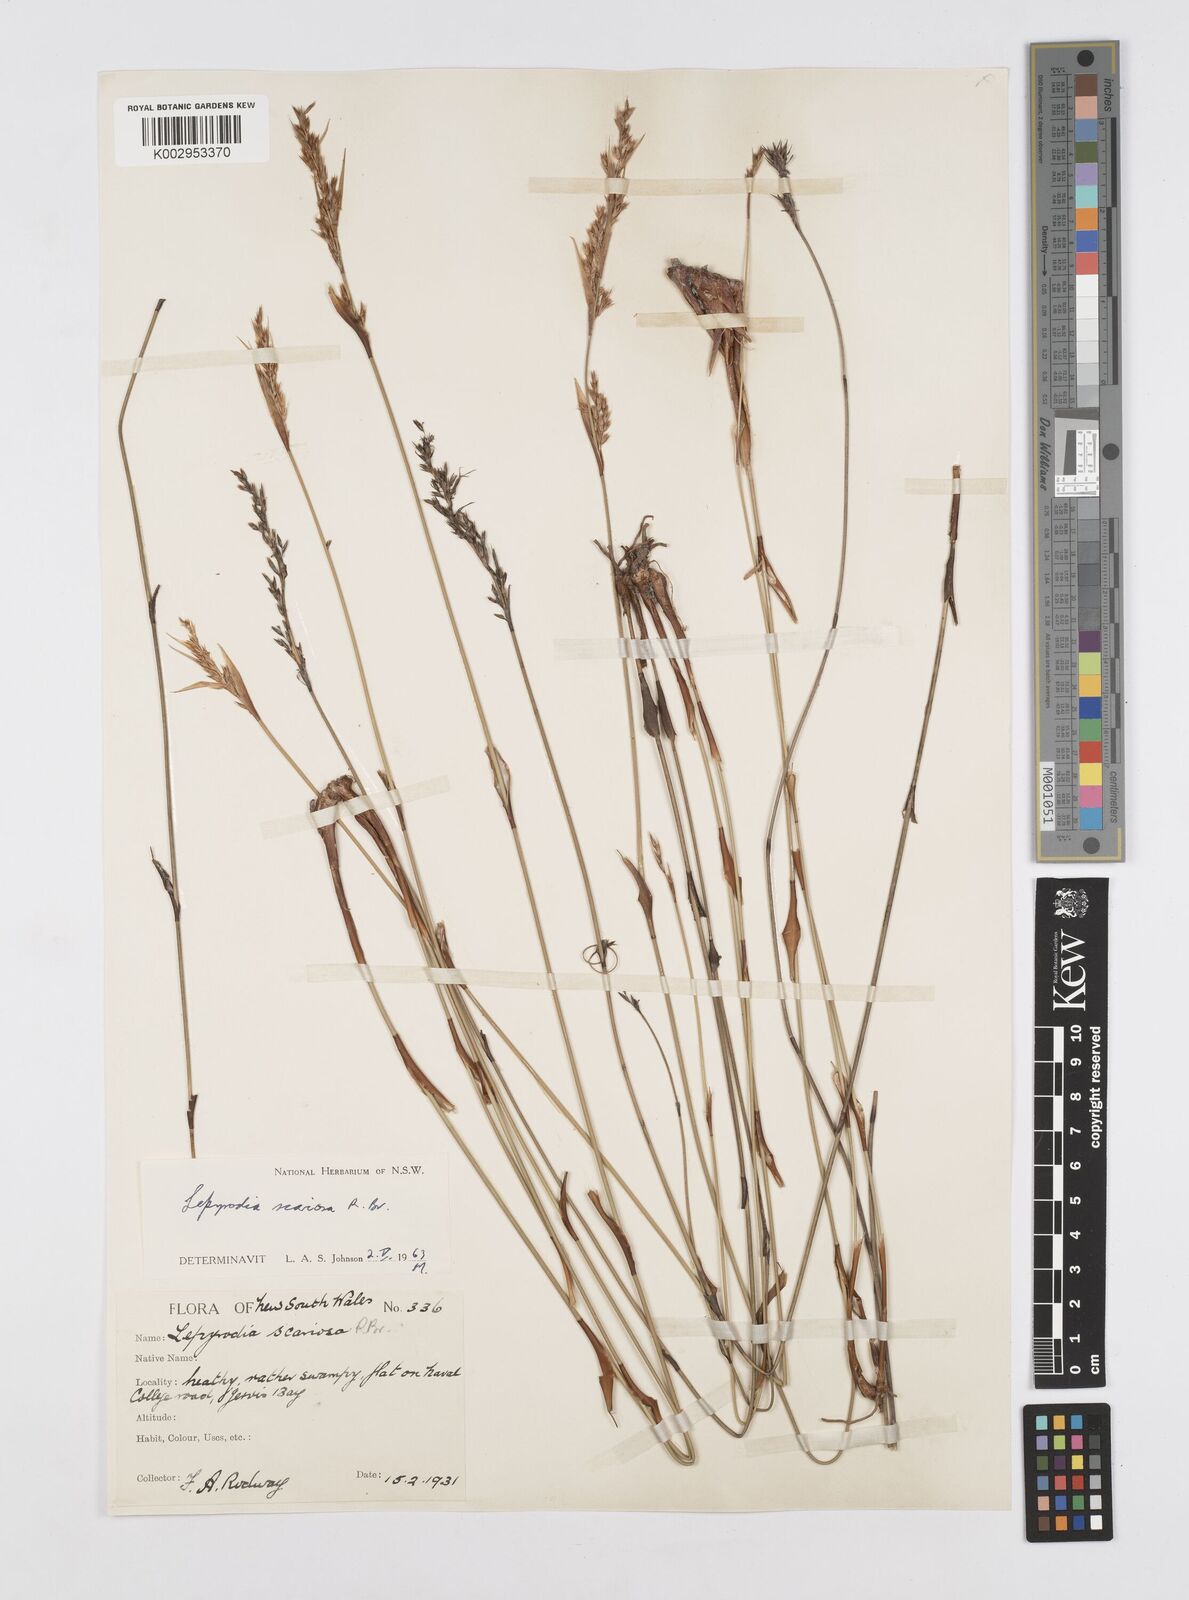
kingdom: Plantae
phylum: Tracheophyta
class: Liliopsida
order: Poales
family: Restionaceae
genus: Lepyrodia
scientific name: Lepyrodia scariosa
